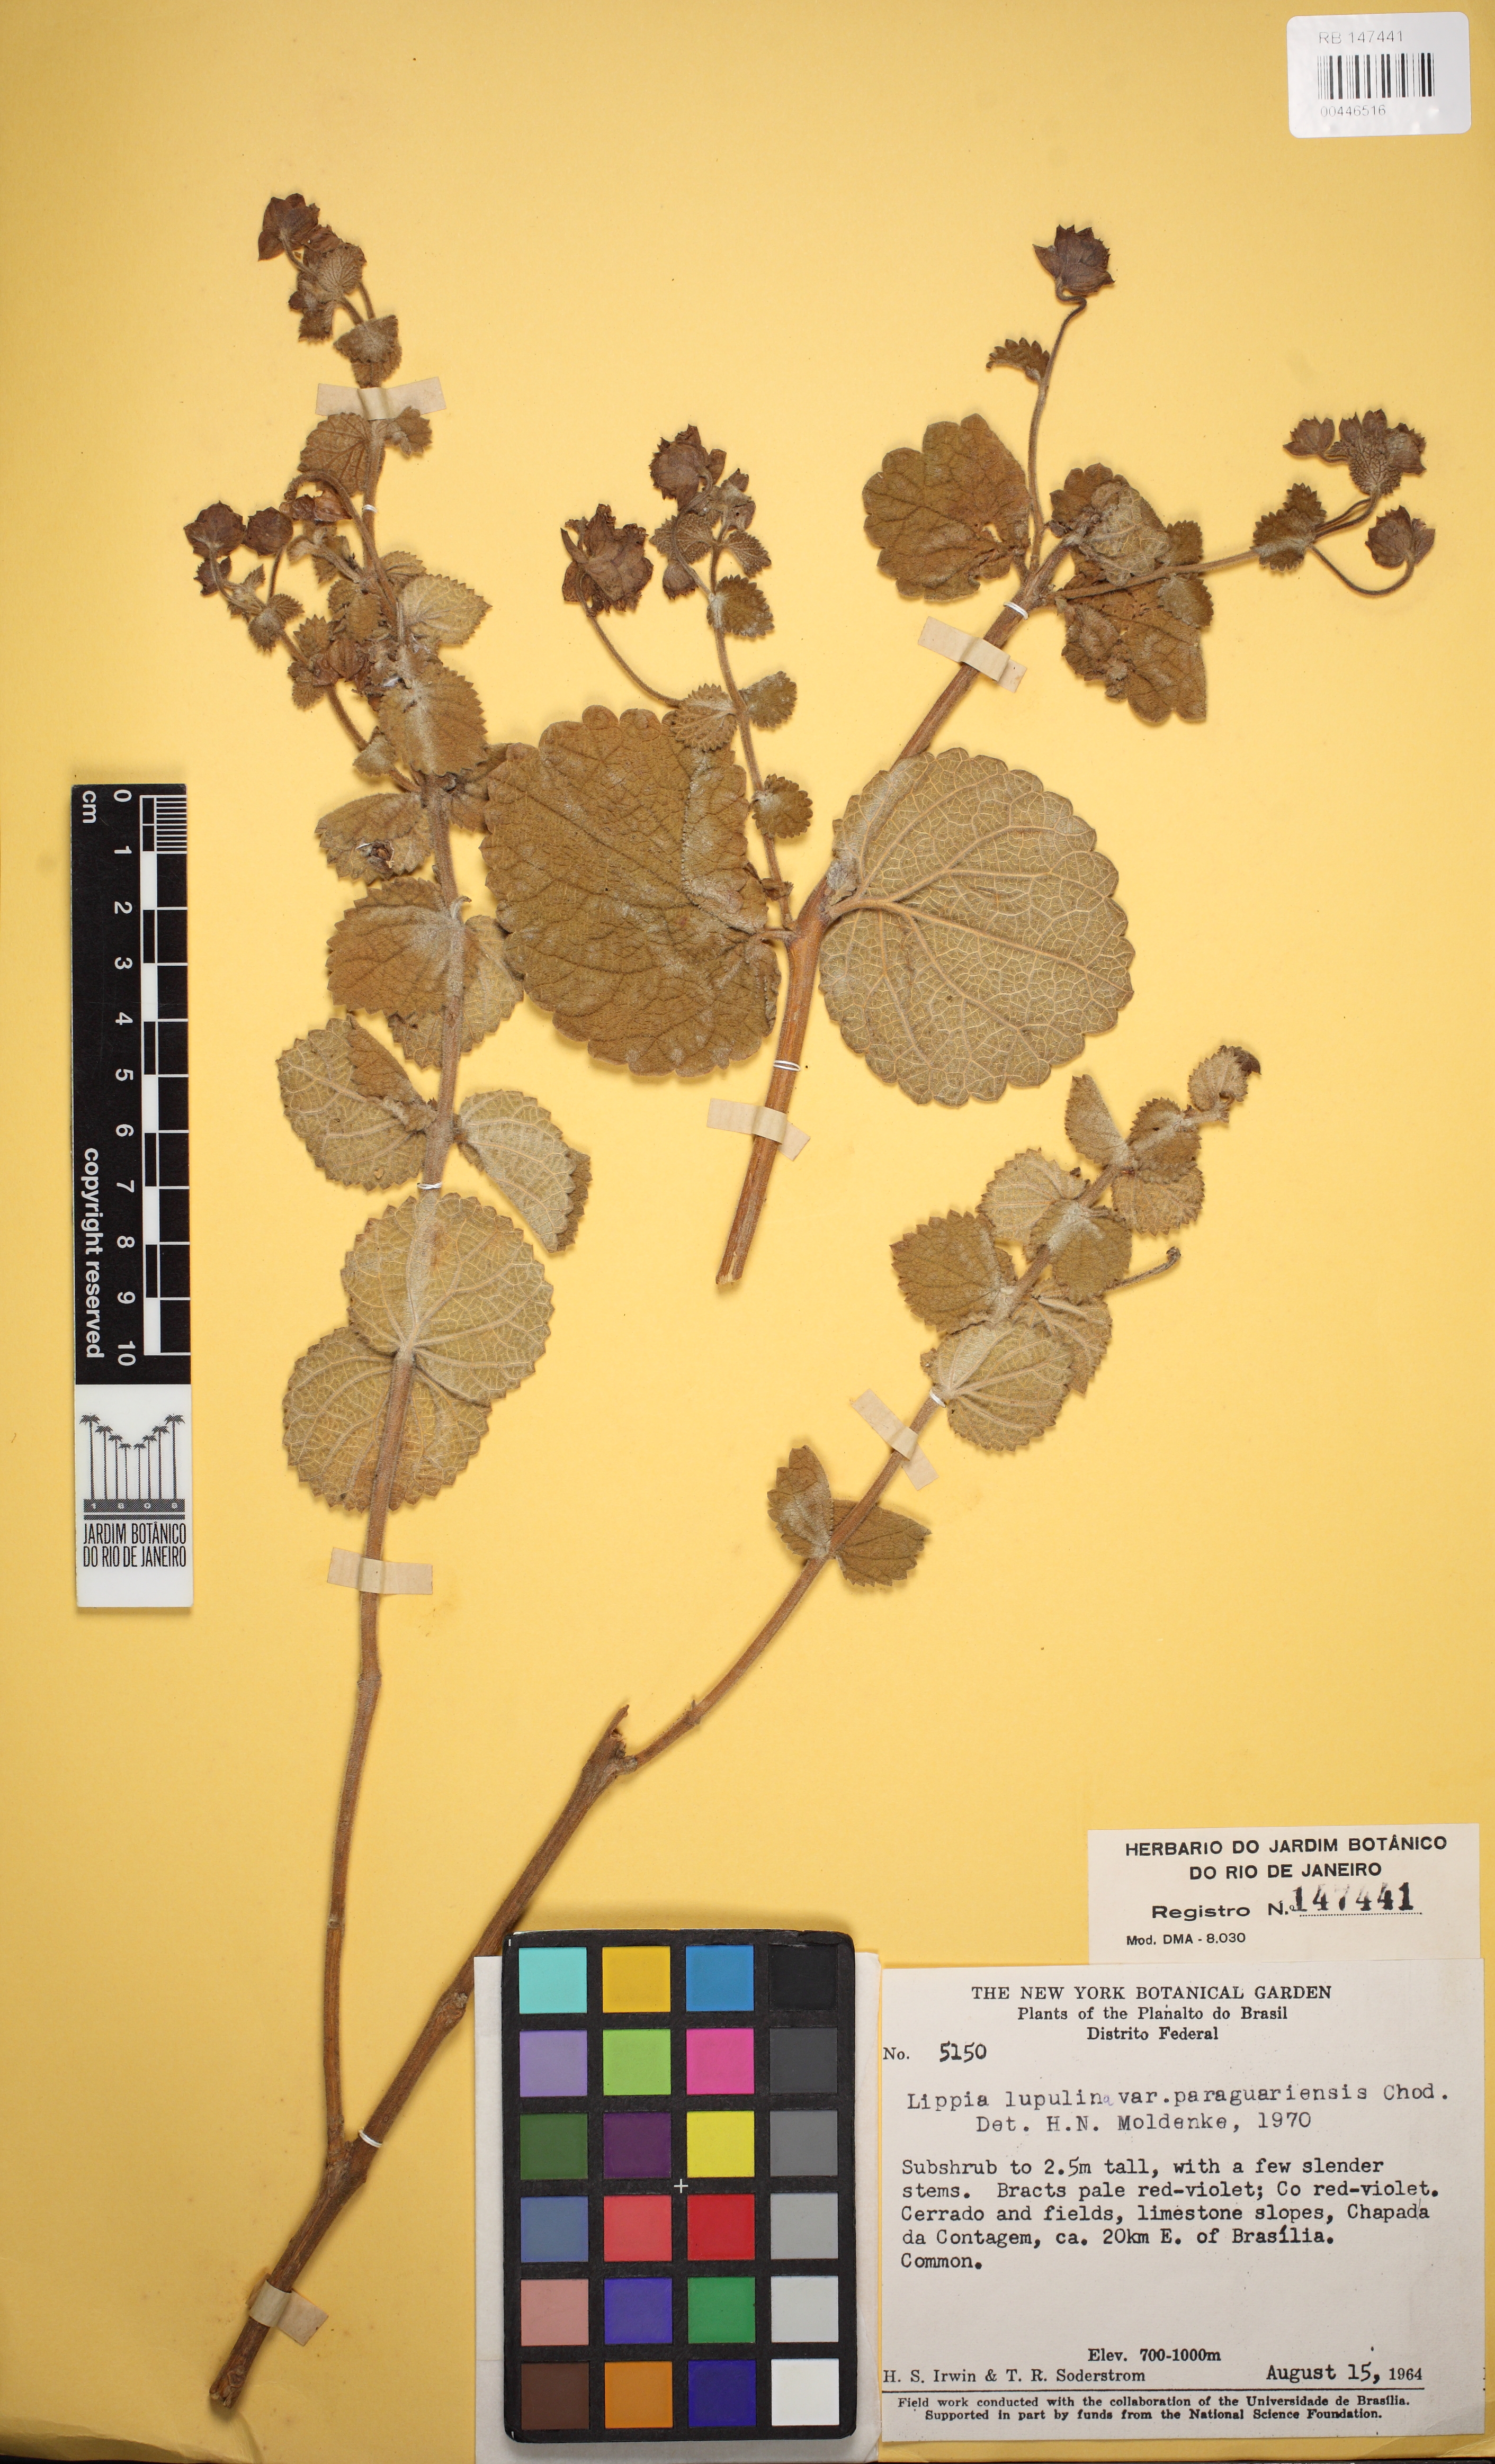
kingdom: Plantae
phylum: Tracheophyta
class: Magnoliopsida
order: Lamiales
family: Verbenaceae
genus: Lippia
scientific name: Lippia lupulina
